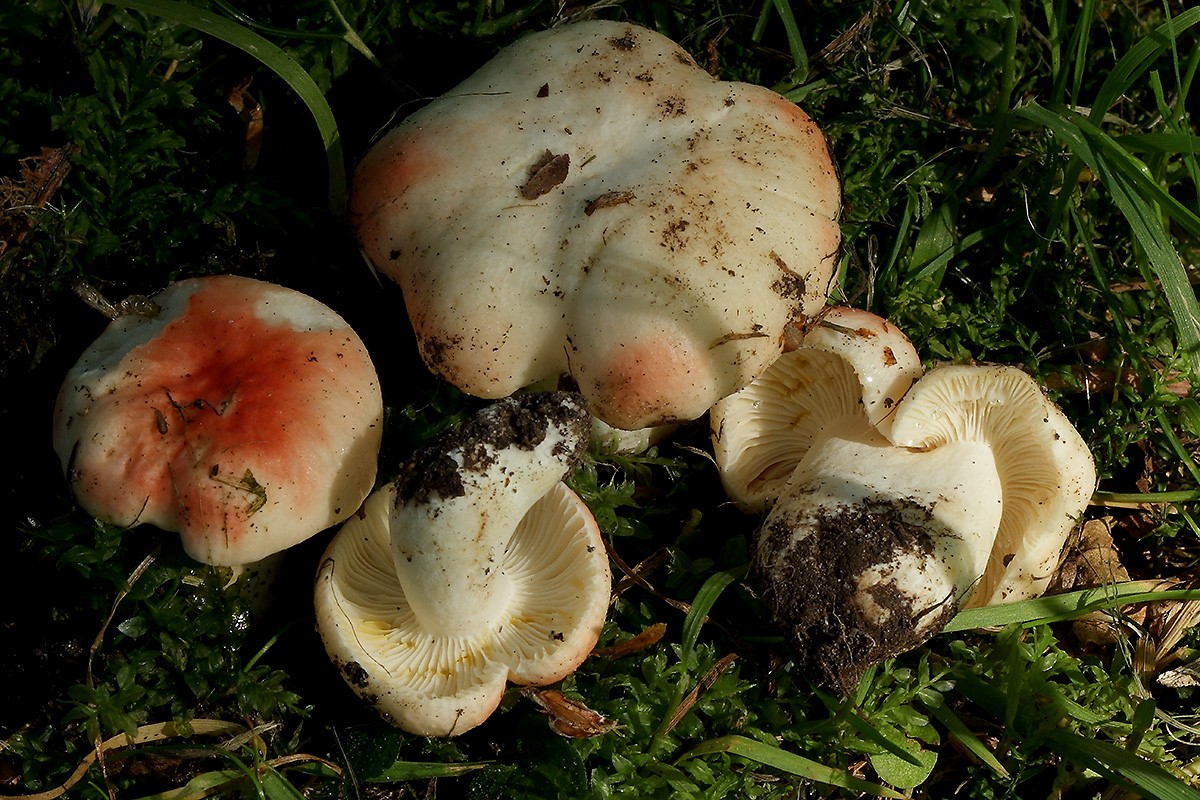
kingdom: Fungi
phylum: Basidiomycota
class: Agaricomycetes
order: Russulales
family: Russulaceae
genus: Russula
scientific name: Russula luteotacta
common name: gulplettet gift-skørhat
